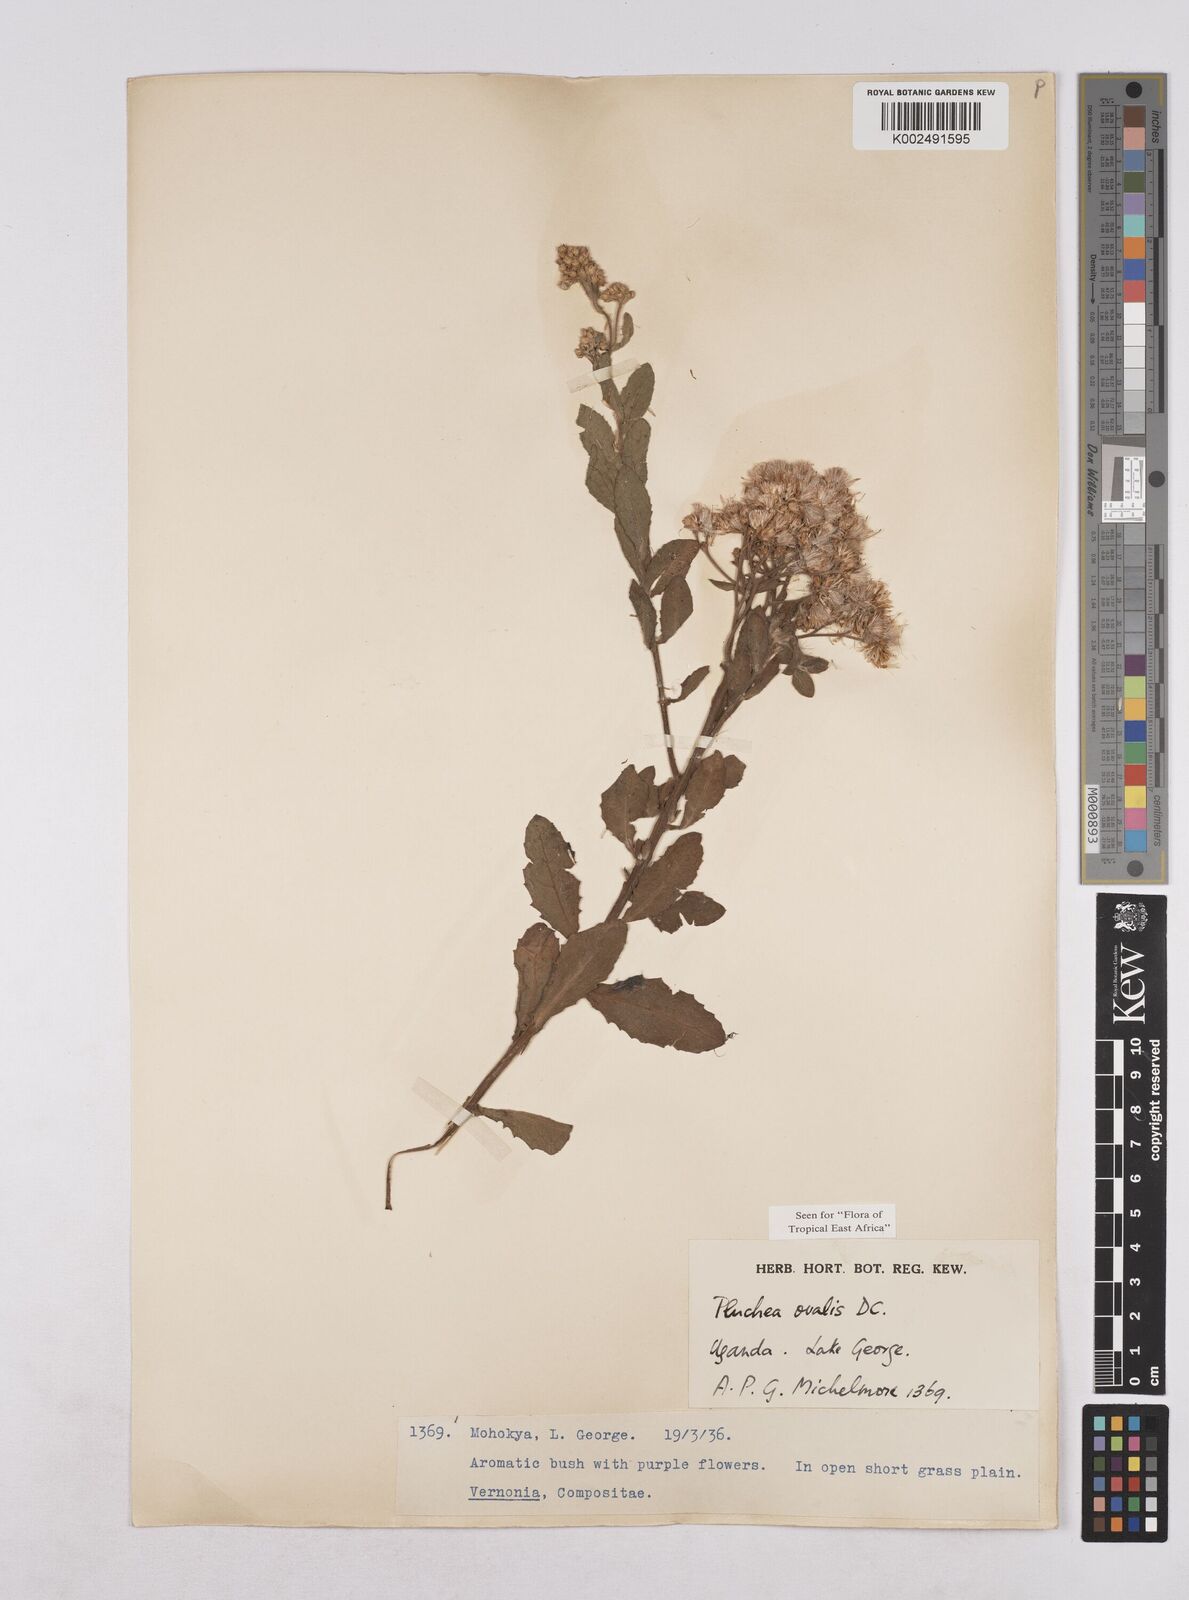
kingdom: Plantae
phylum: Tracheophyta
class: Magnoliopsida
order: Asterales
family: Asteraceae
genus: Pluchea
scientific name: Pluchea ovalis
